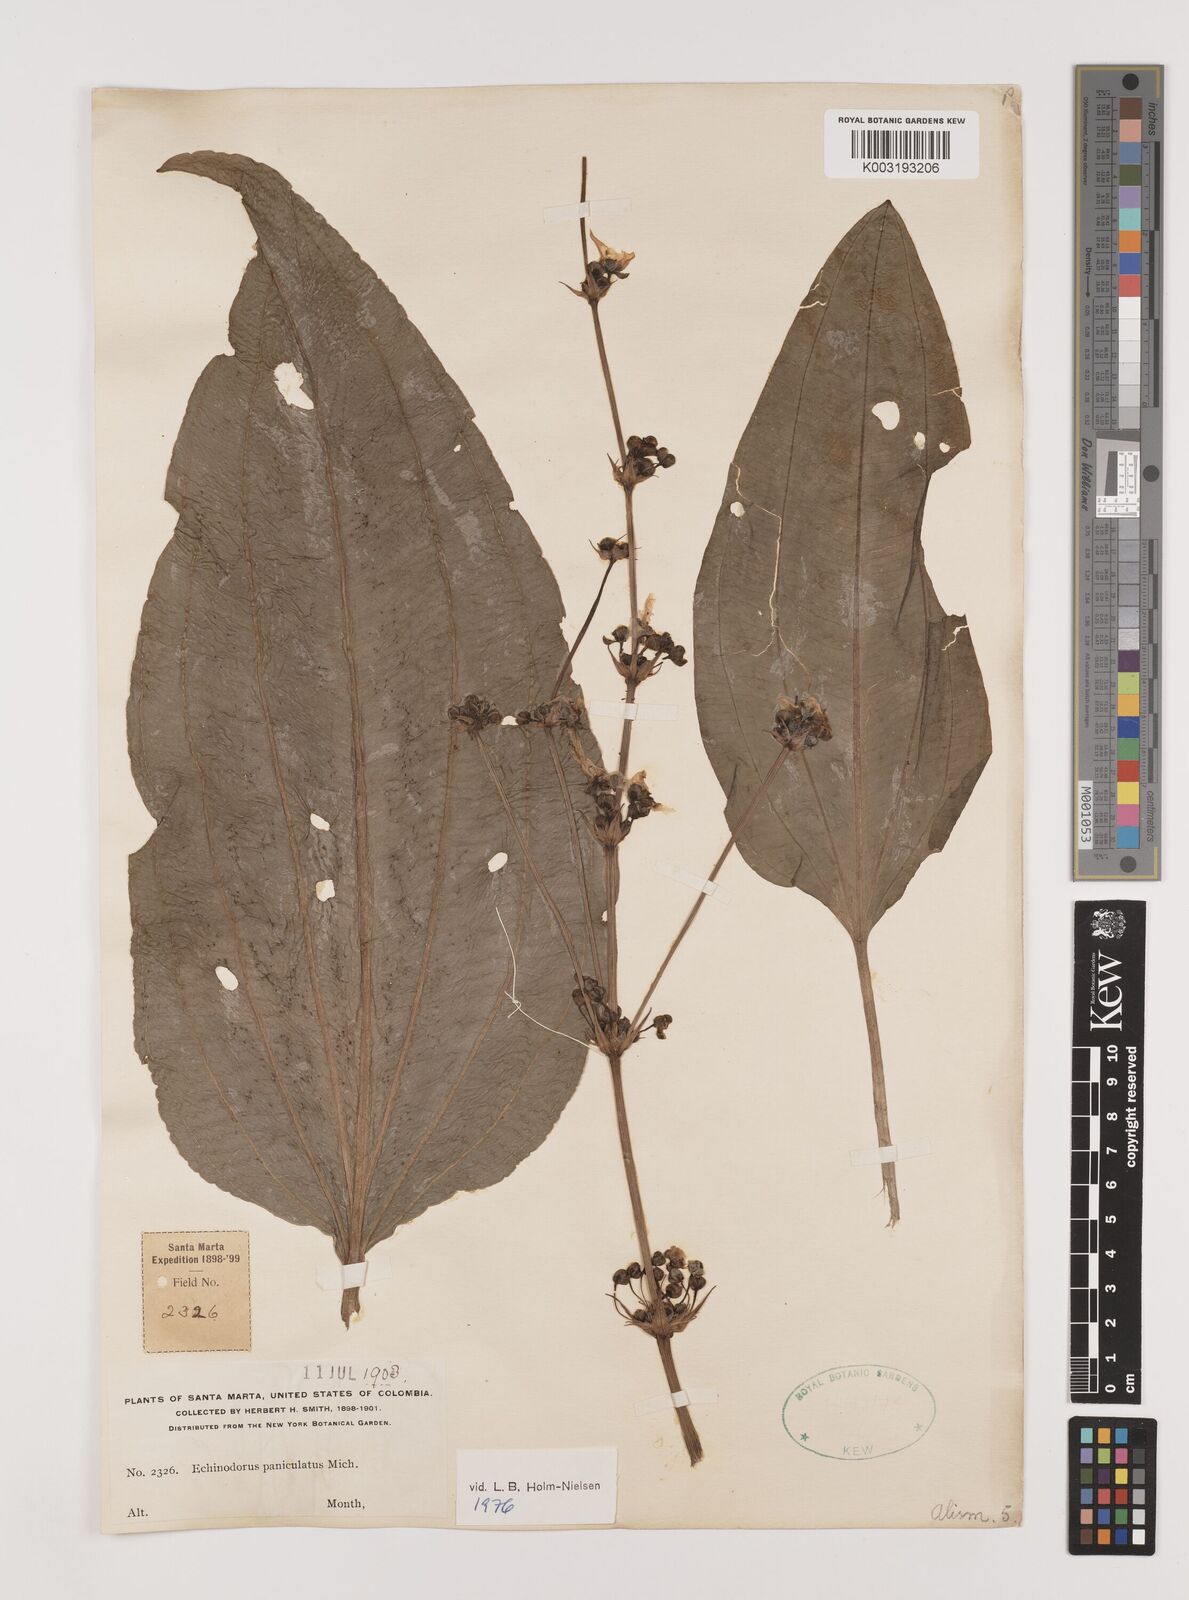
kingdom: Plantae
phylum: Tracheophyta
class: Liliopsida
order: Alismatales
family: Alismataceae
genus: Aquarius
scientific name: Aquarius paniculatus
